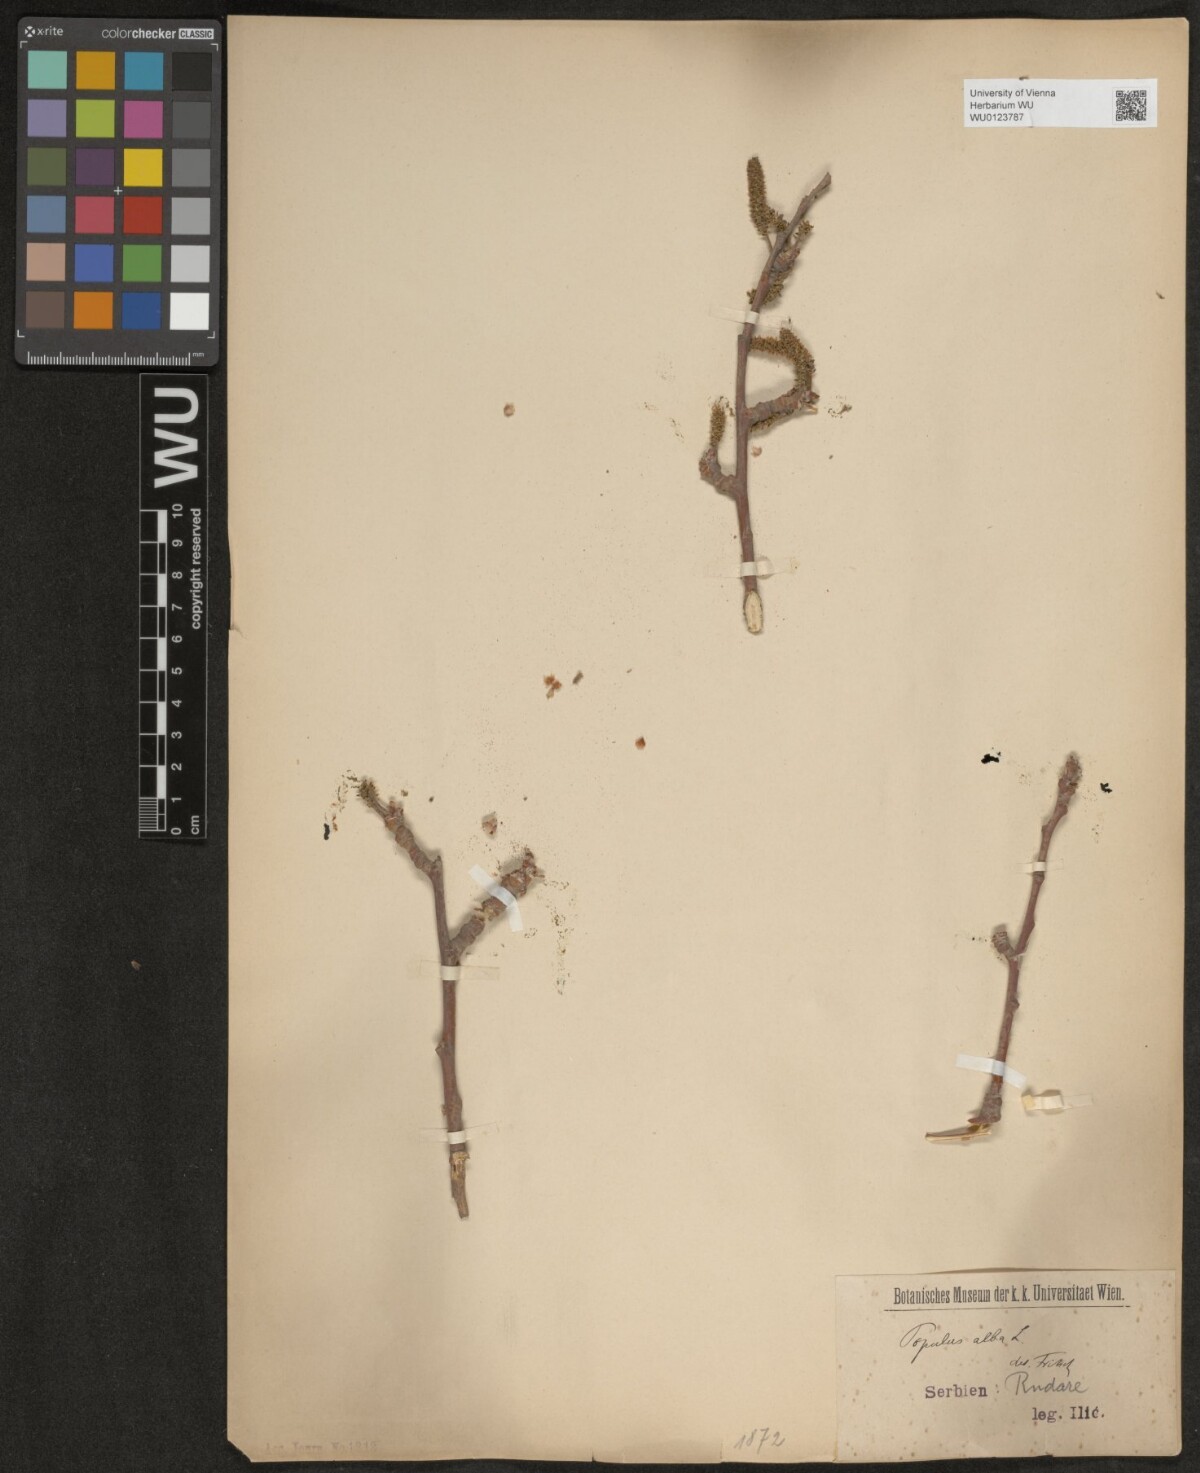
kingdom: Plantae
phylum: Tracheophyta
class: Magnoliopsida
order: Malpighiales
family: Salicaceae
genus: Populus
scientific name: Populus alba
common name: White poplar
